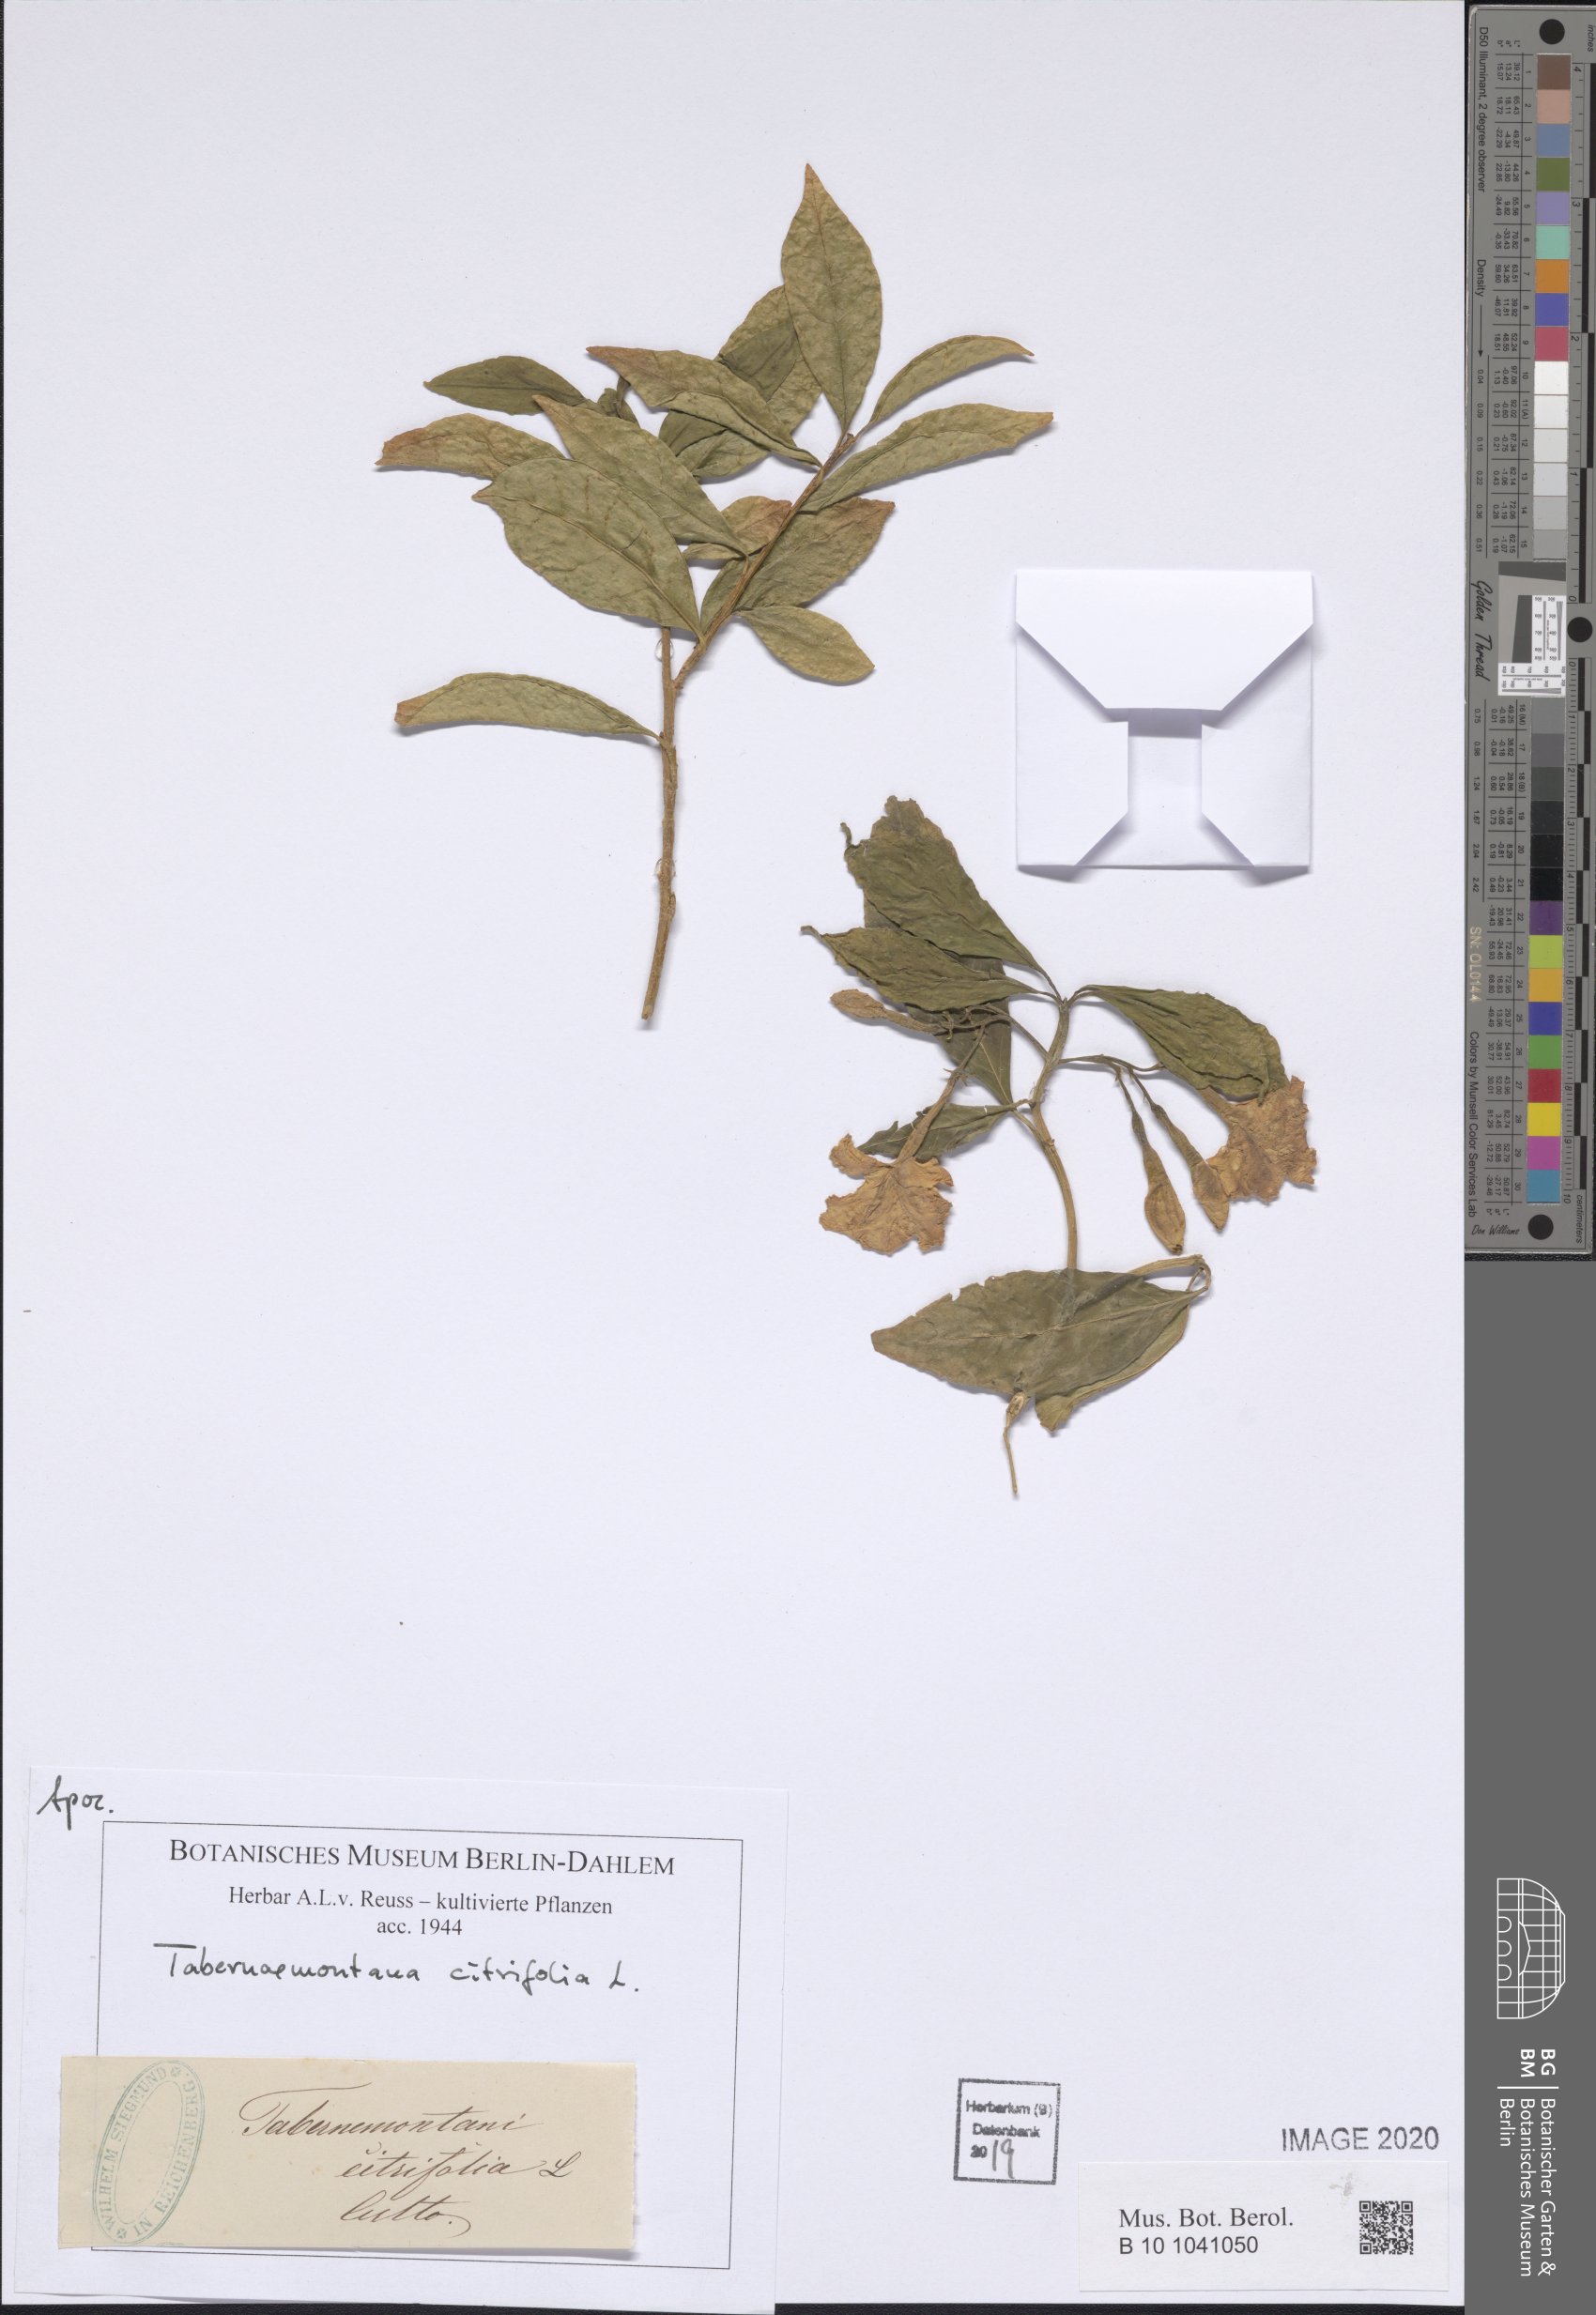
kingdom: Plantae
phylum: Tracheophyta
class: Magnoliopsida
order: Gentianales
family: Apocynaceae
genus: Tabernaemontana
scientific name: Tabernaemontana citrifolia
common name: Milky tree
